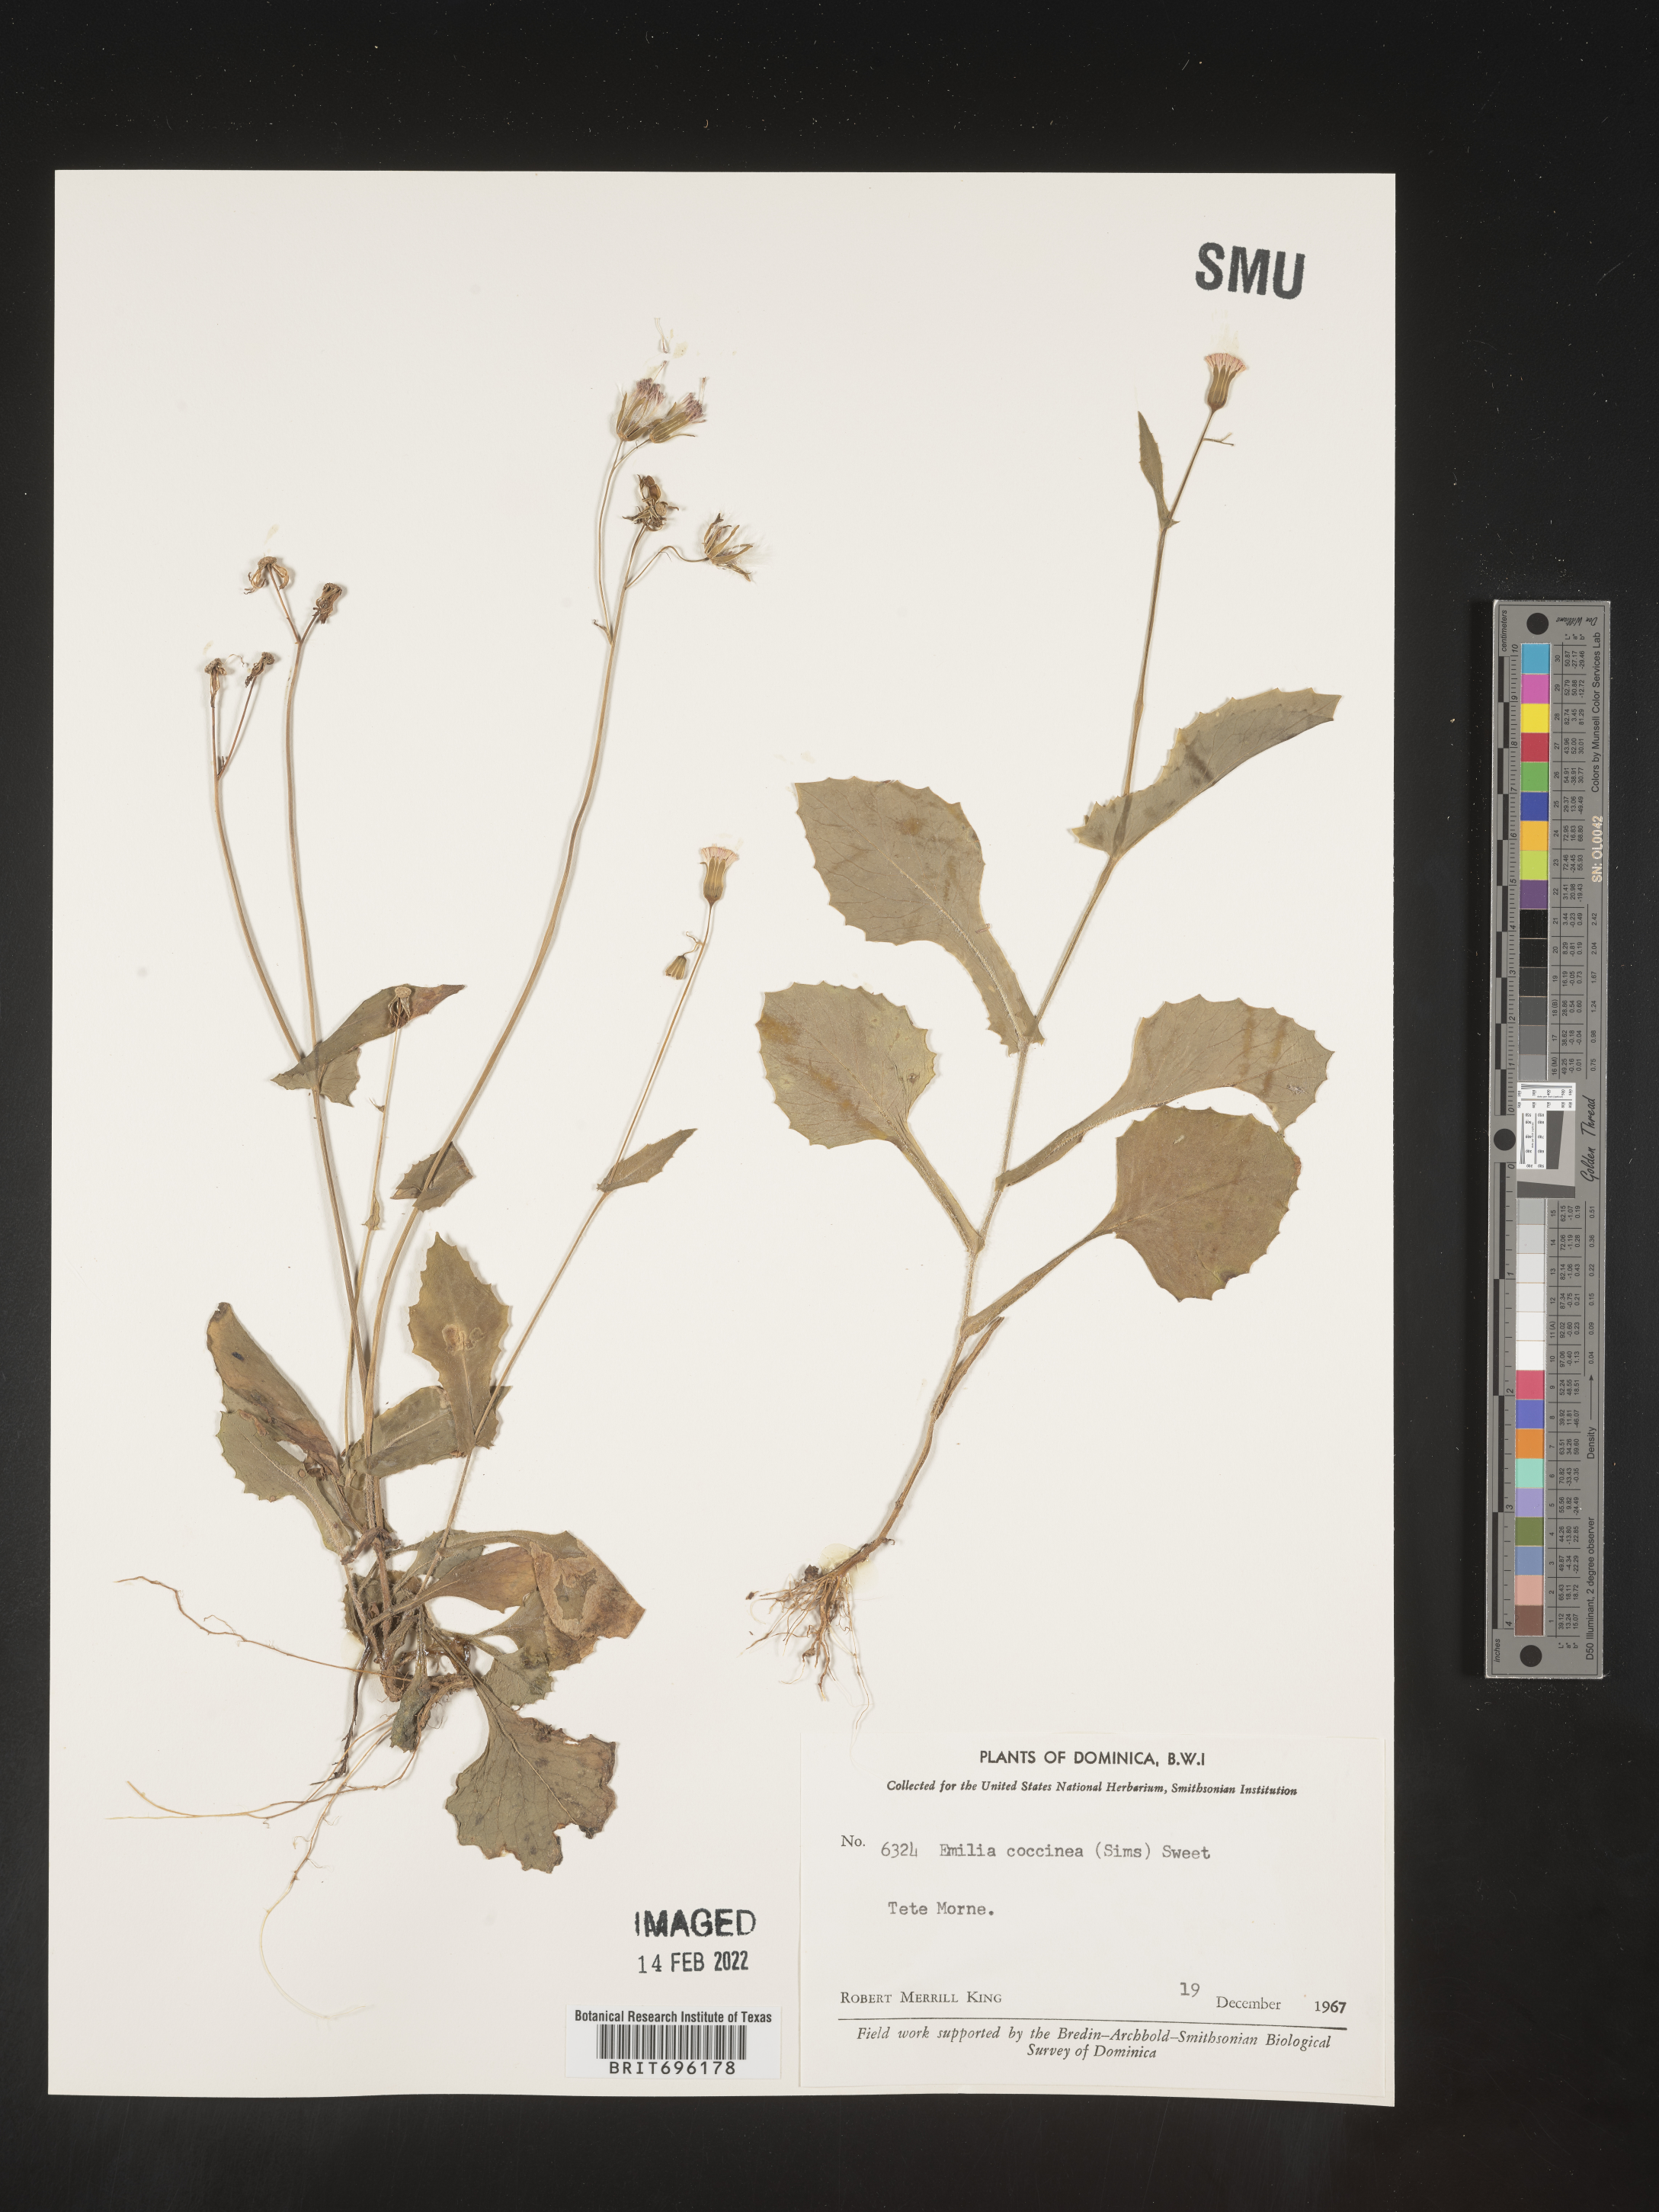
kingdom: Plantae
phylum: Tracheophyta
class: Magnoliopsida
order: Asterales
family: Asteraceae
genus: Emilia
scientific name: Emilia
